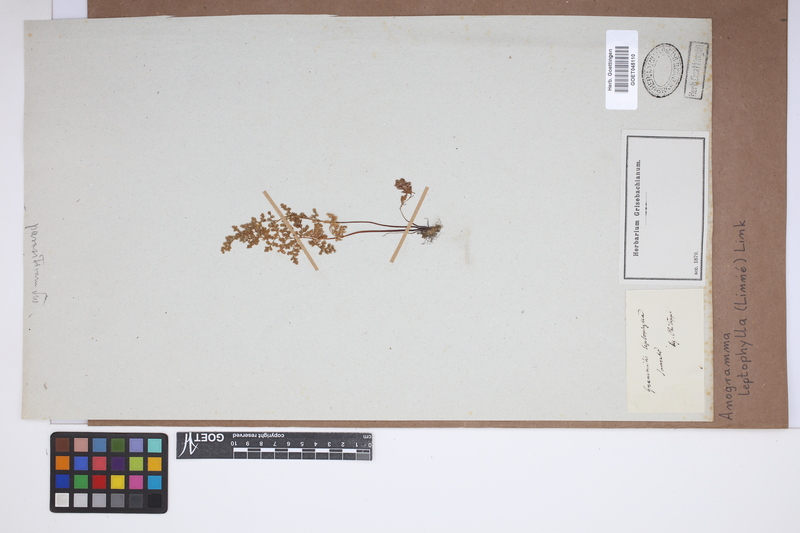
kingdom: Plantae
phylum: Tracheophyta
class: Polypodiopsida
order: Polypodiales
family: Pteridaceae
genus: Anogramma
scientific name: Anogramma leptophylla
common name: Jersey fern
